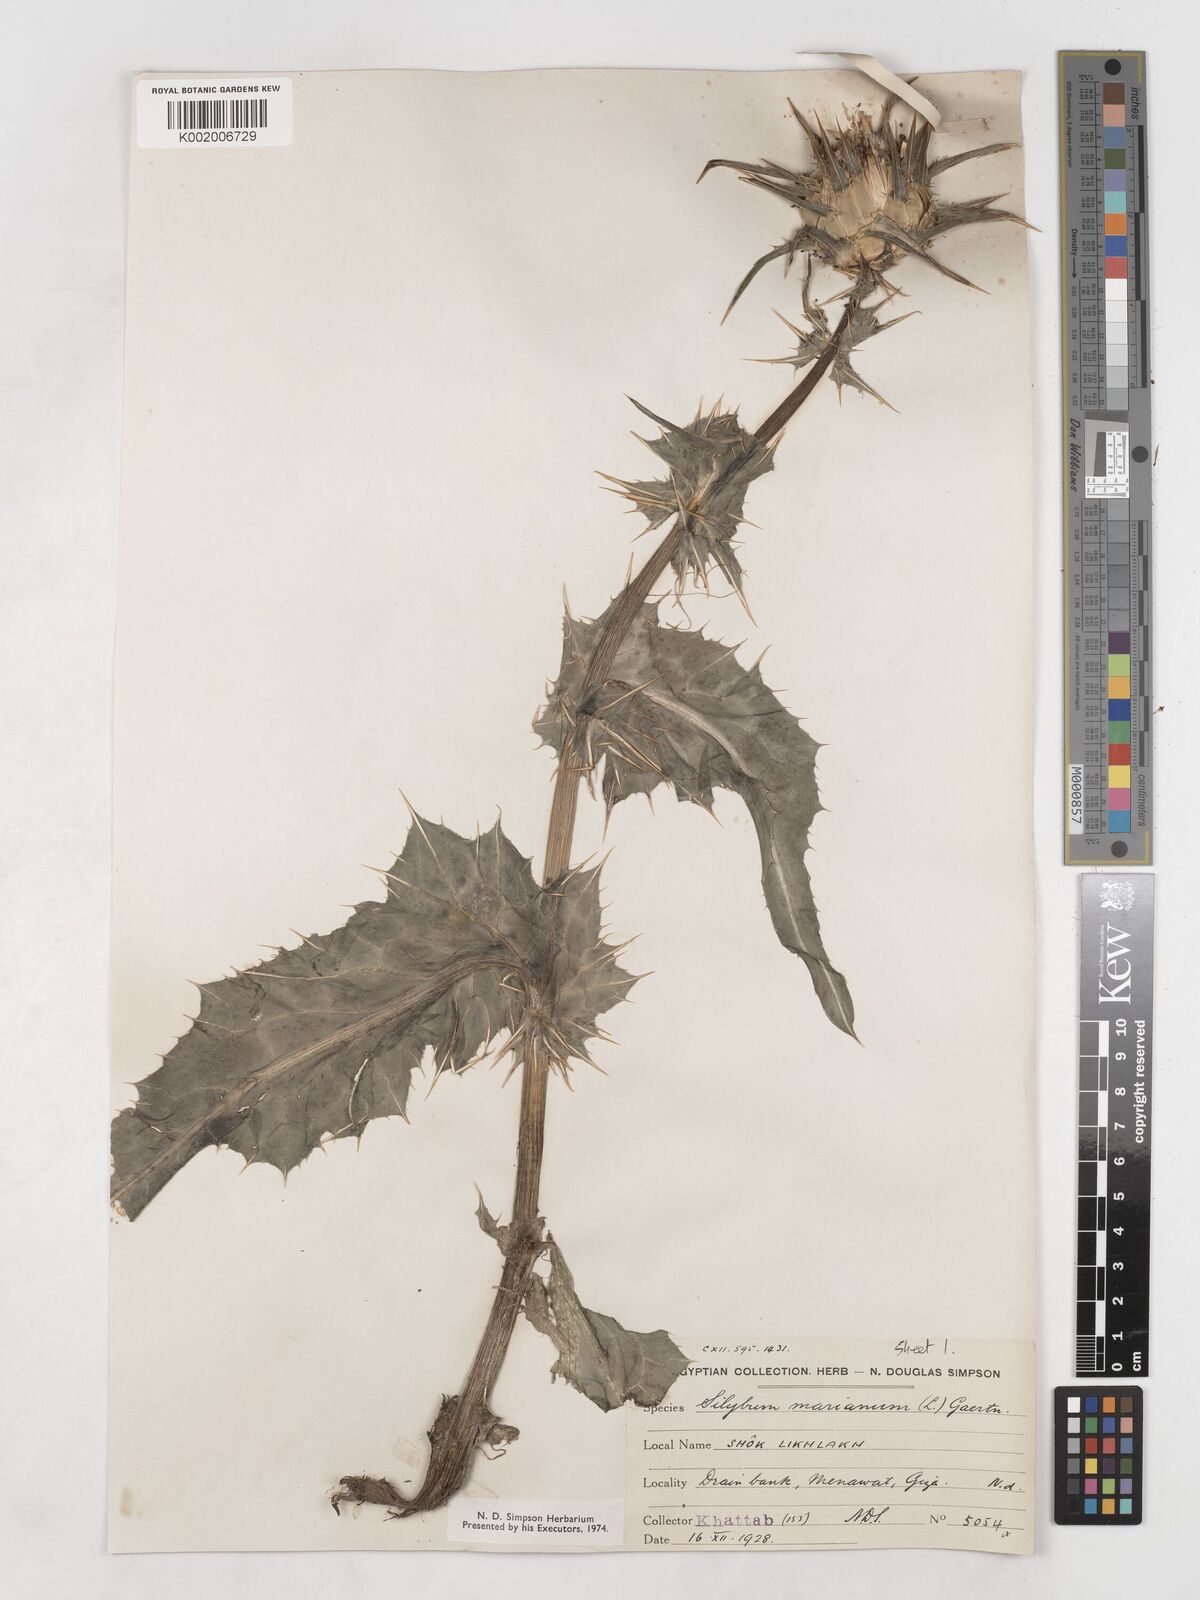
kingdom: Plantae
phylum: Tracheophyta
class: Magnoliopsida
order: Asterales
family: Asteraceae
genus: Silybum
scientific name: Silybum marianum
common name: Milk thistle
